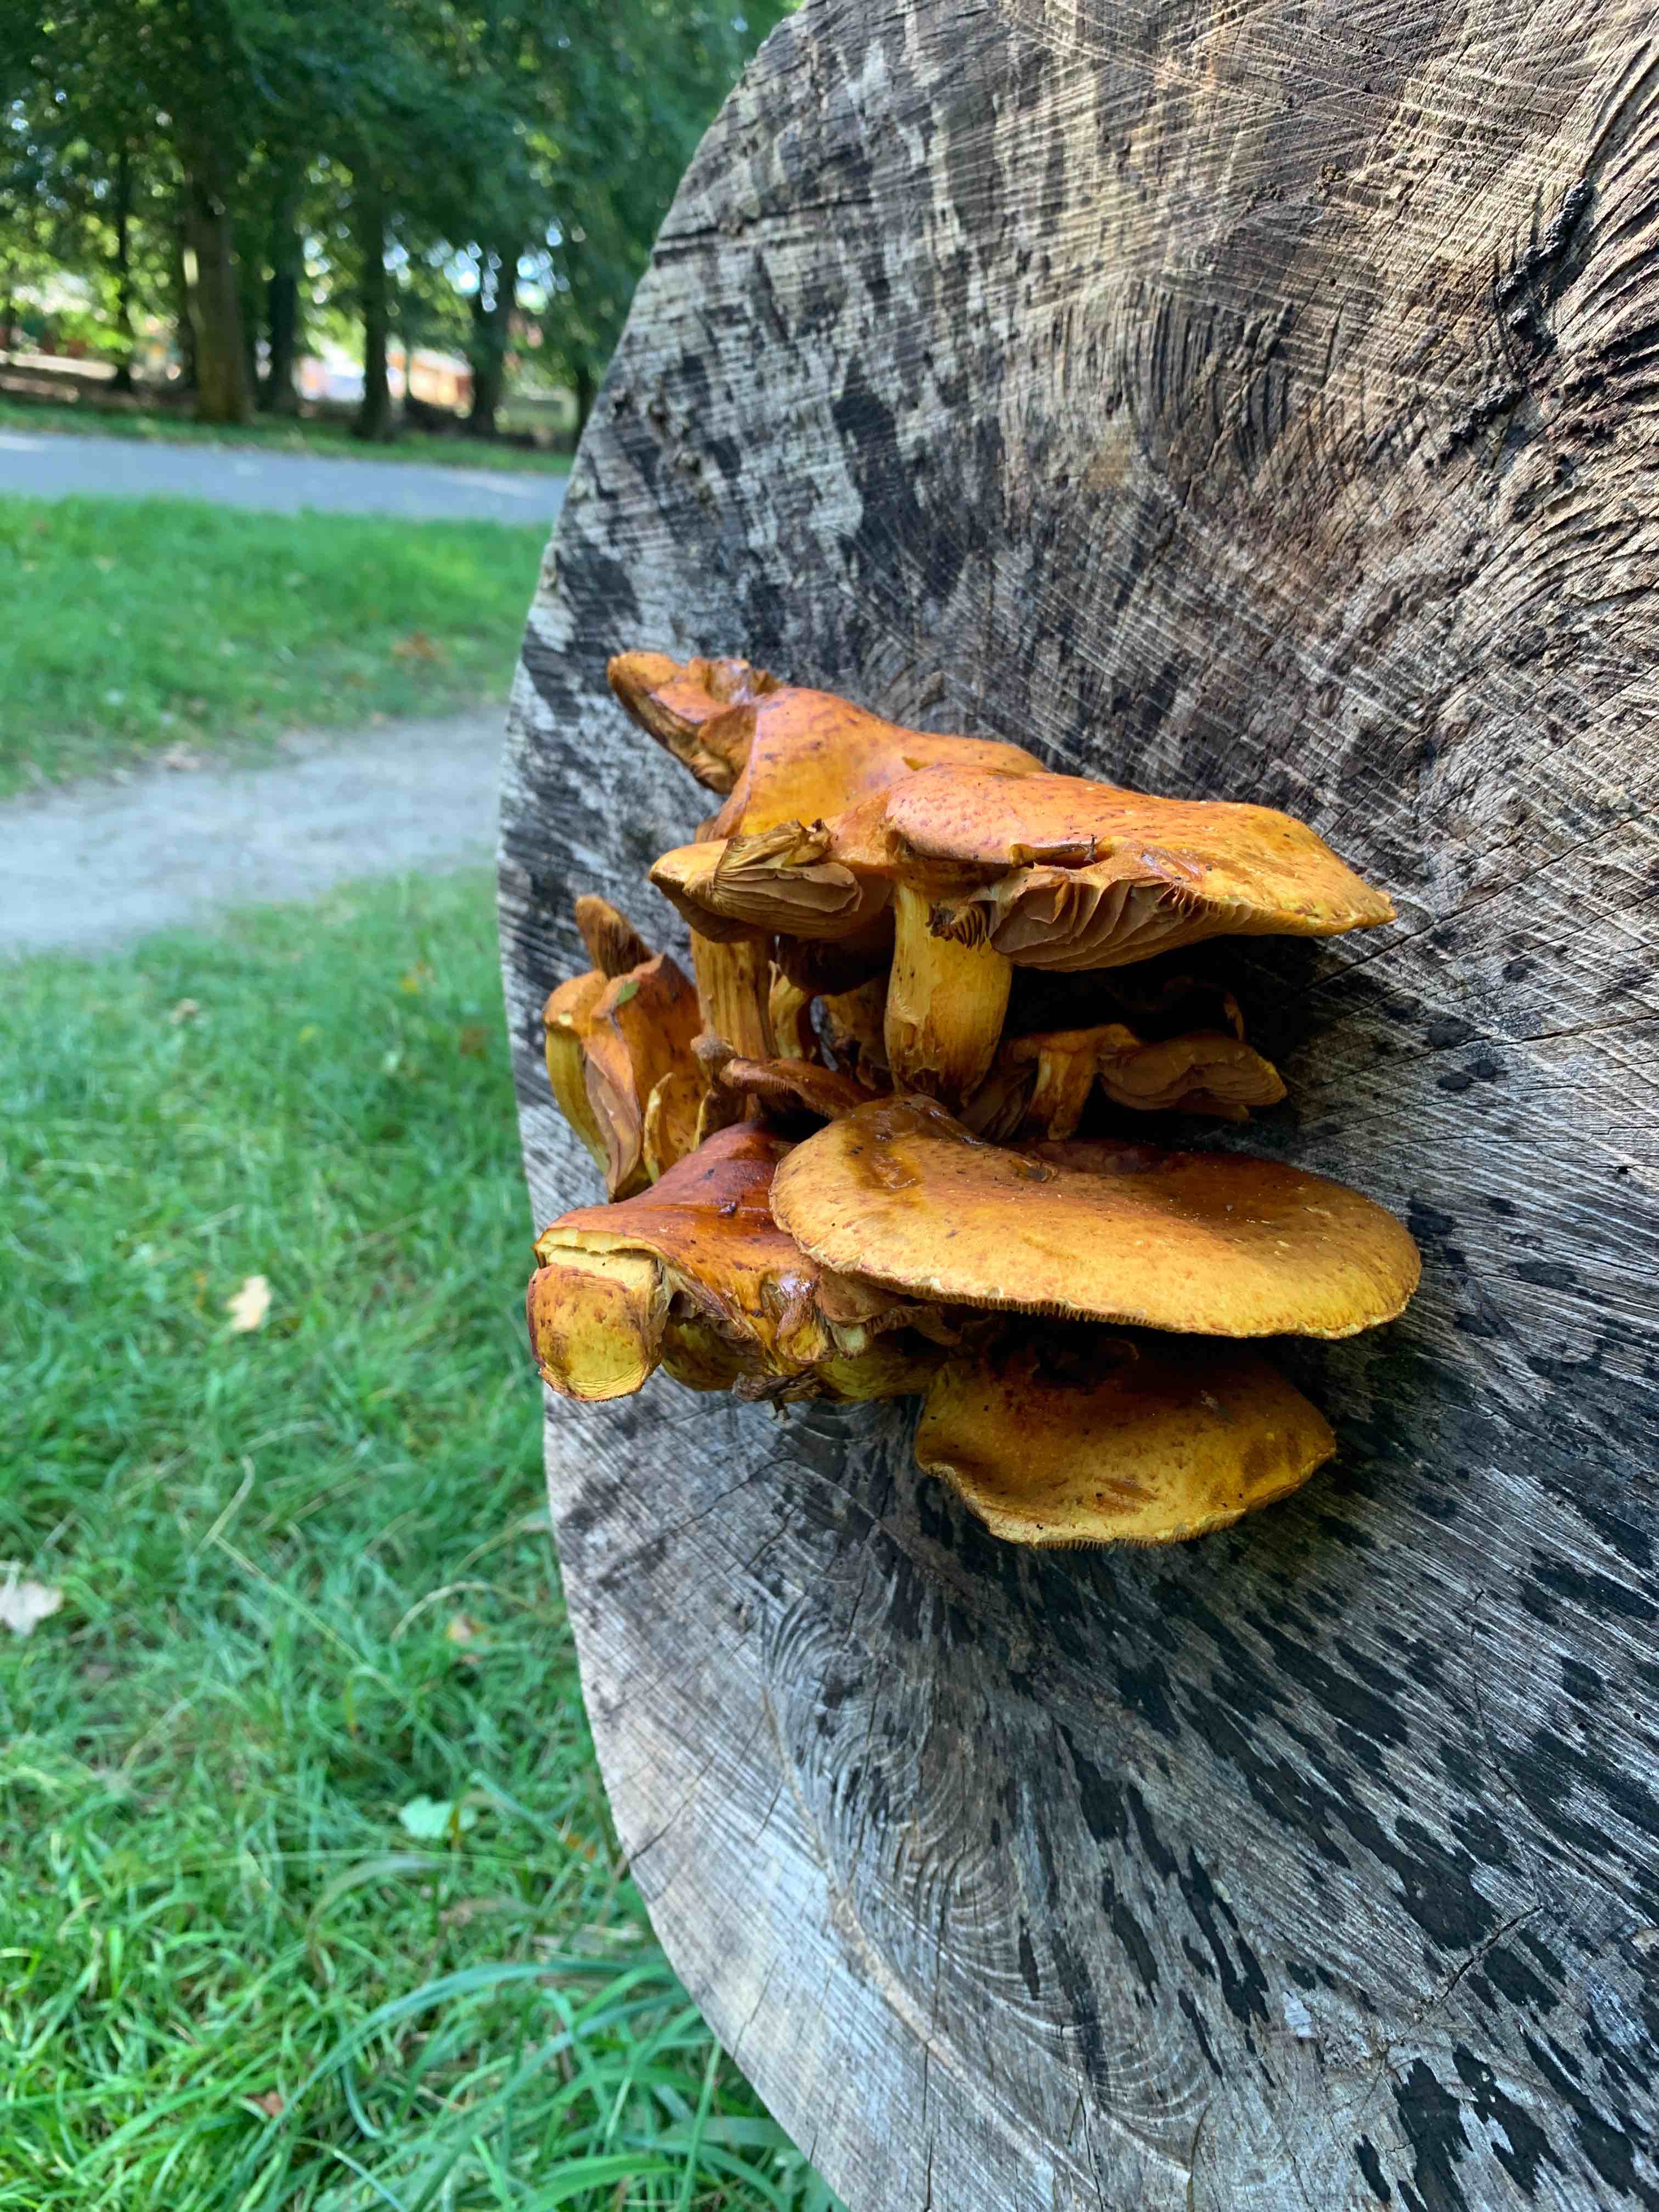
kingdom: Fungi
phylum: Basidiomycota
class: Agaricomycetes
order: Agaricales
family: Strophariaceae
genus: Pholiota
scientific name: Pholiota adiposa
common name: højtsiddende skælhat
